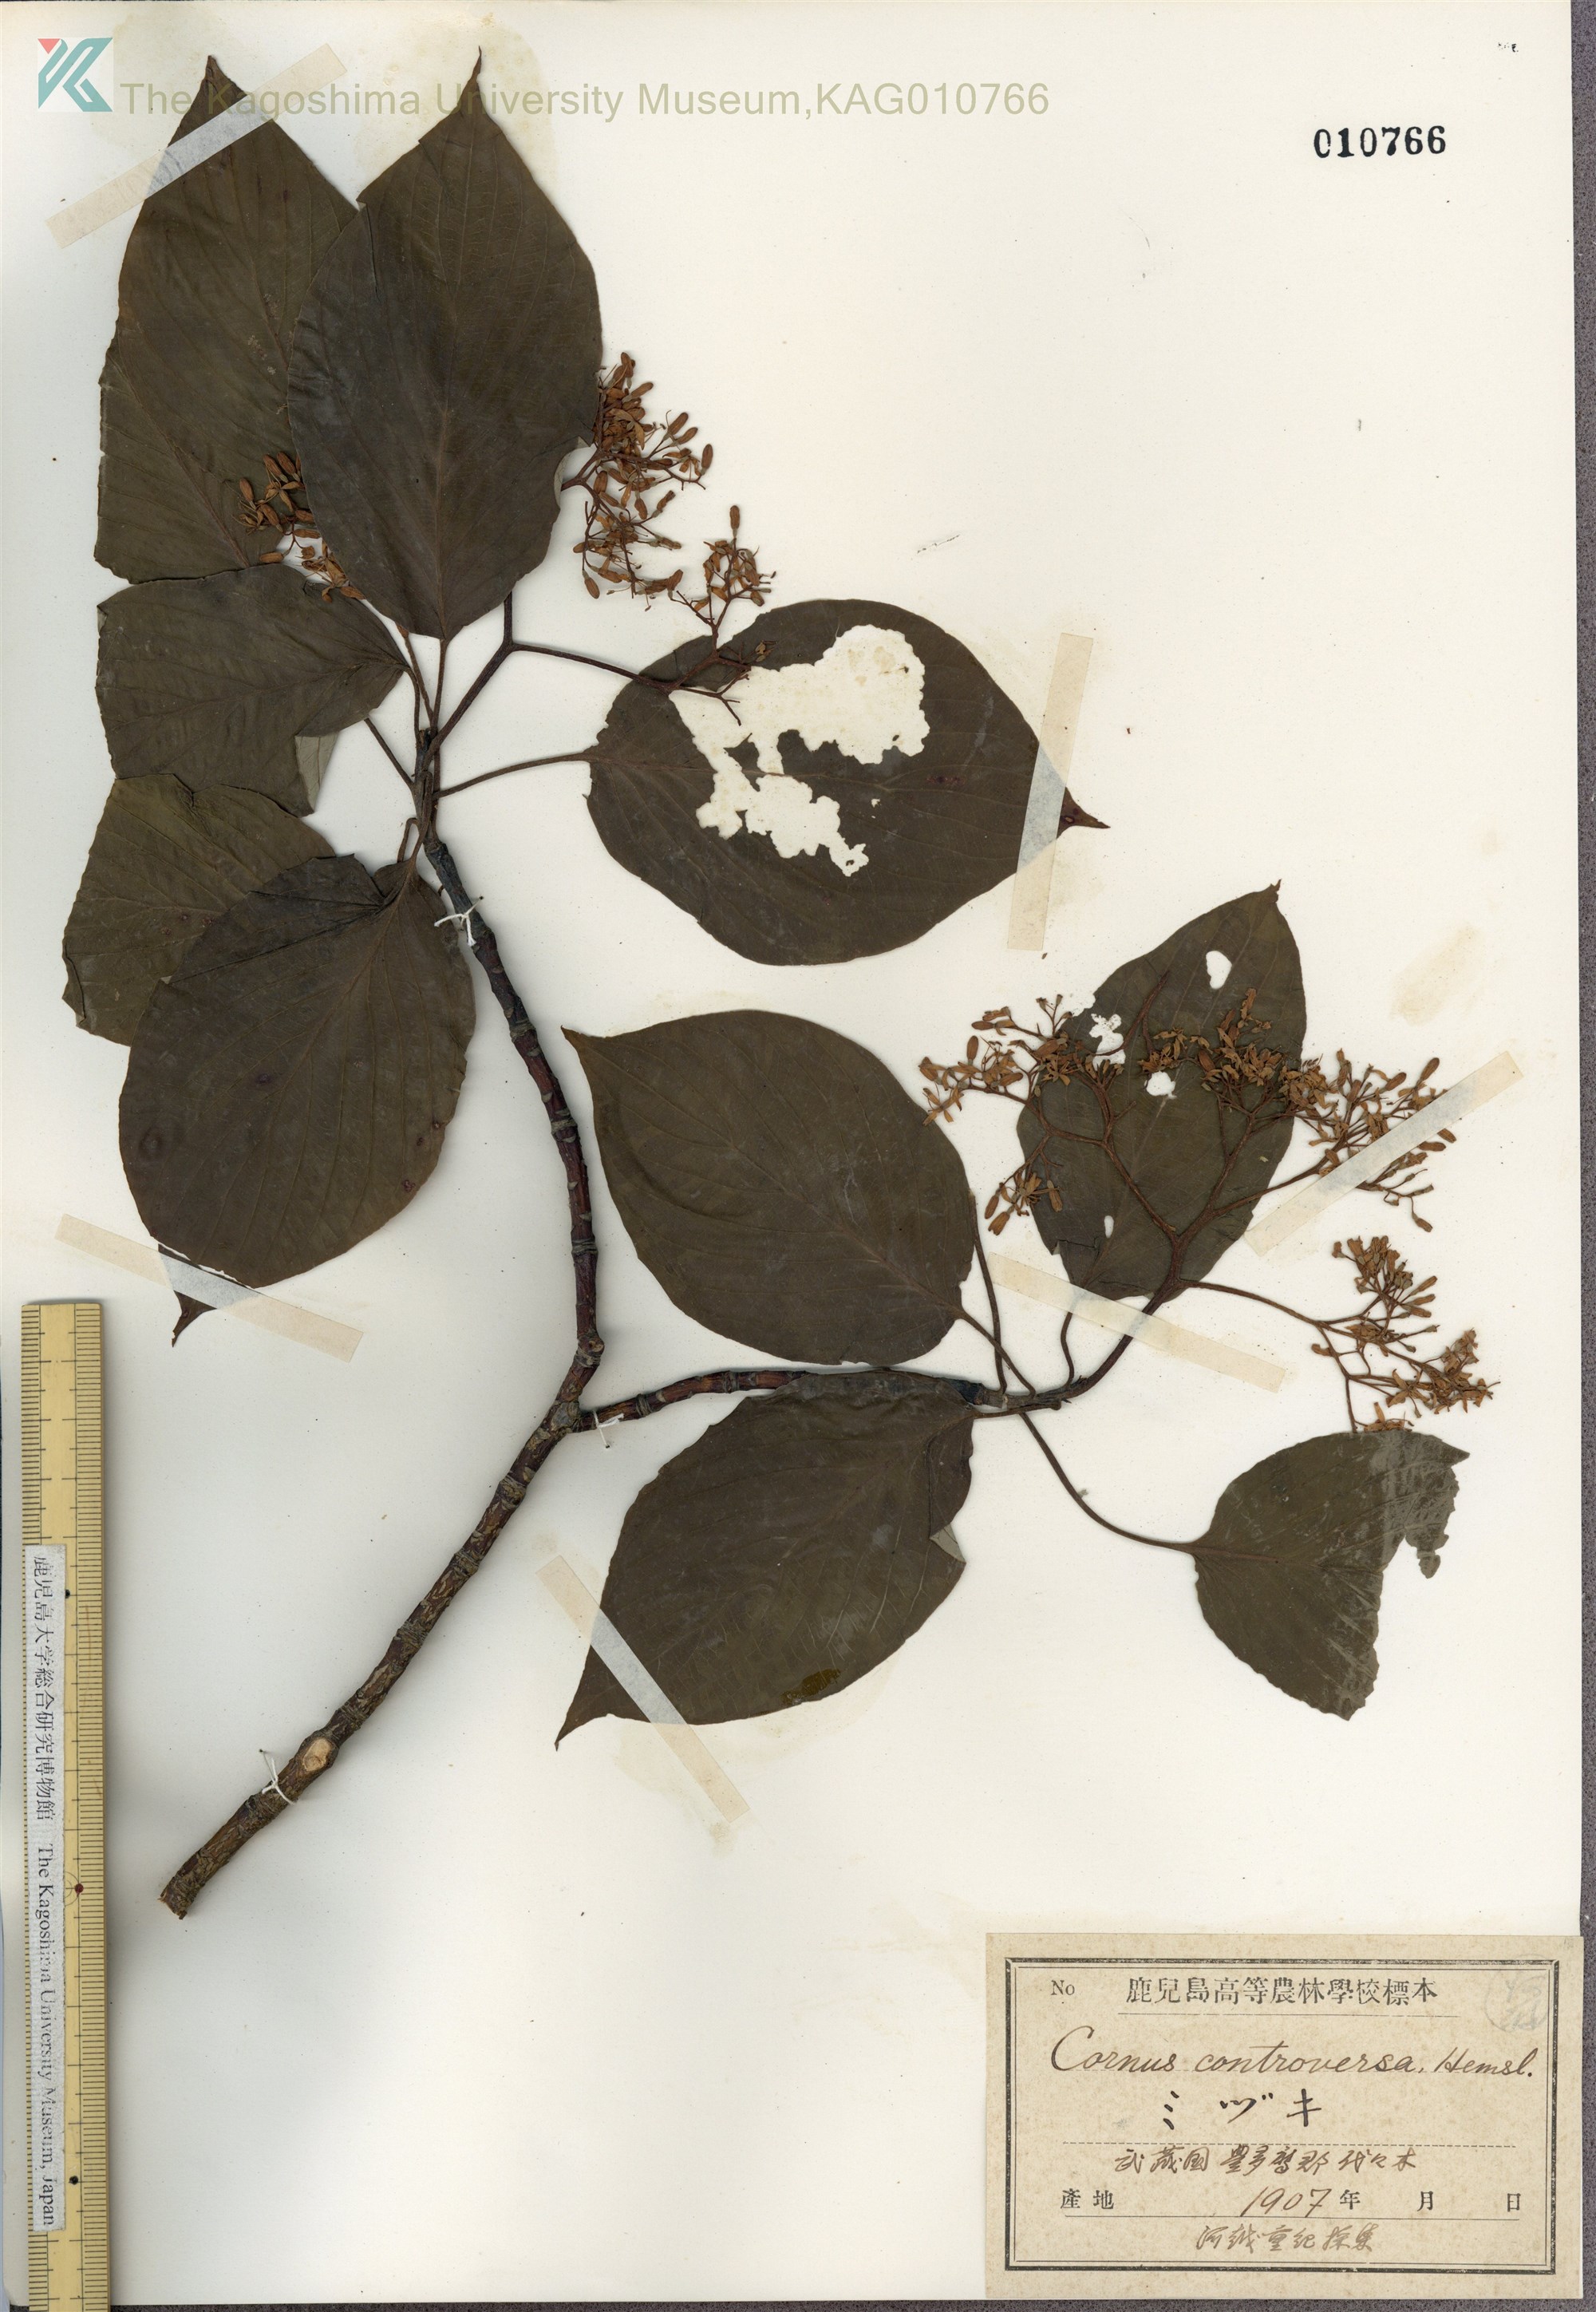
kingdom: Plantae
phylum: Tracheophyta
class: Magnoliopsida
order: Cornales
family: Cornaceae
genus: Cornus
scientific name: Cornus controversa
